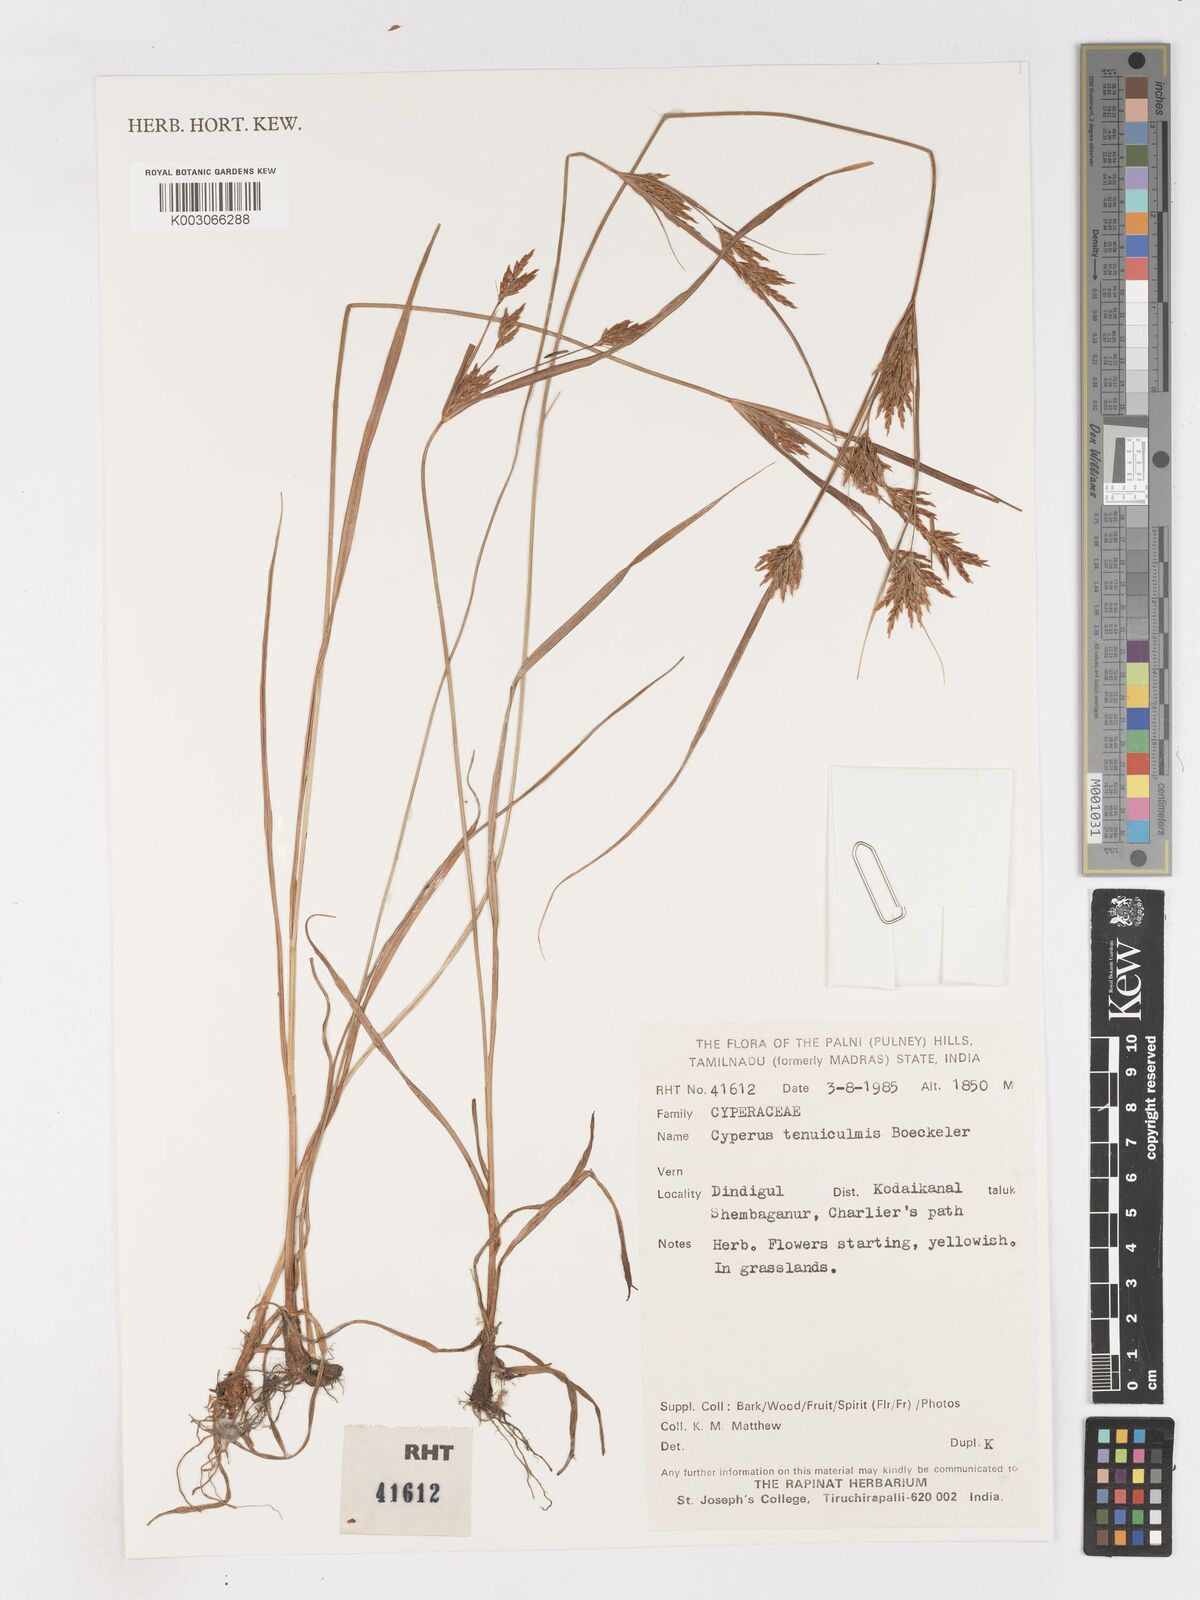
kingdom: Plantae
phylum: Tracheophyta
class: Liliopsida
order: Poales
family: Cyperaceae
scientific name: Cyperaceae
